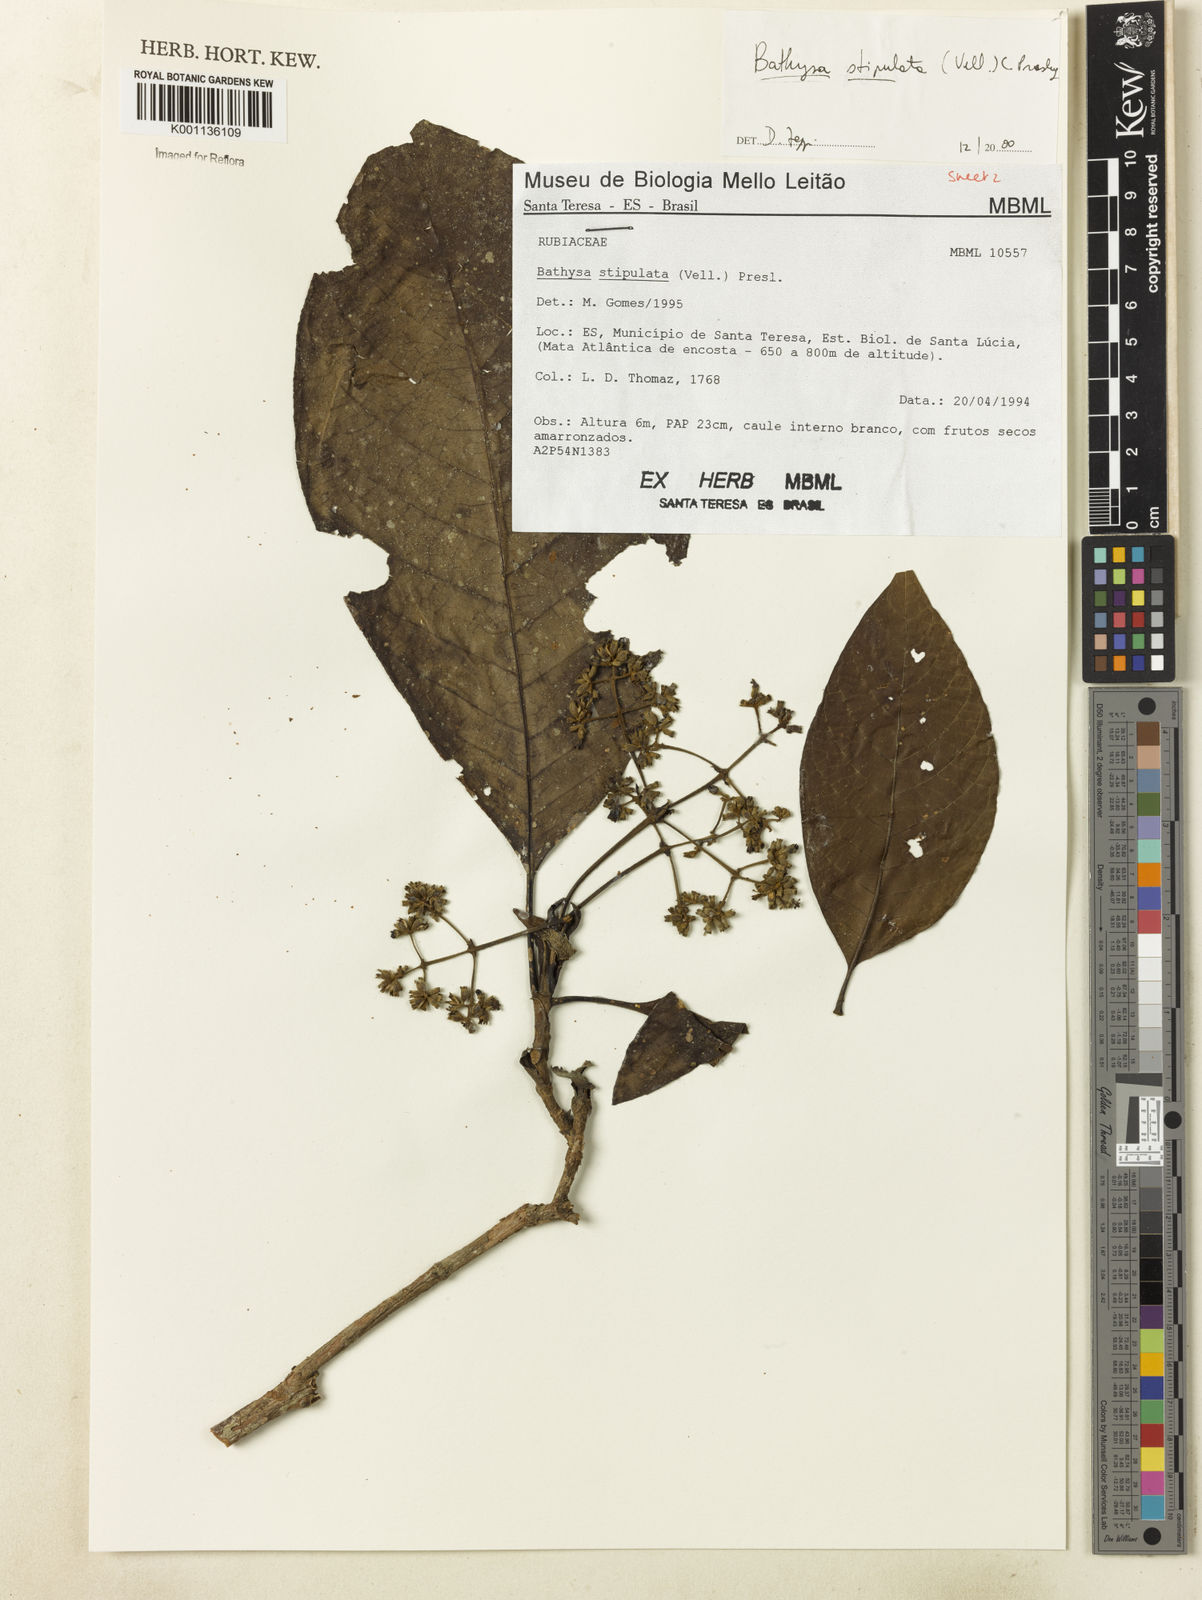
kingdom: Plantae
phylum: Tracheophyta
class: Magnoliopsida
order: Gentianales
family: Rubiaceae
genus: Bathysa
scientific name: Bathysa stipulata
